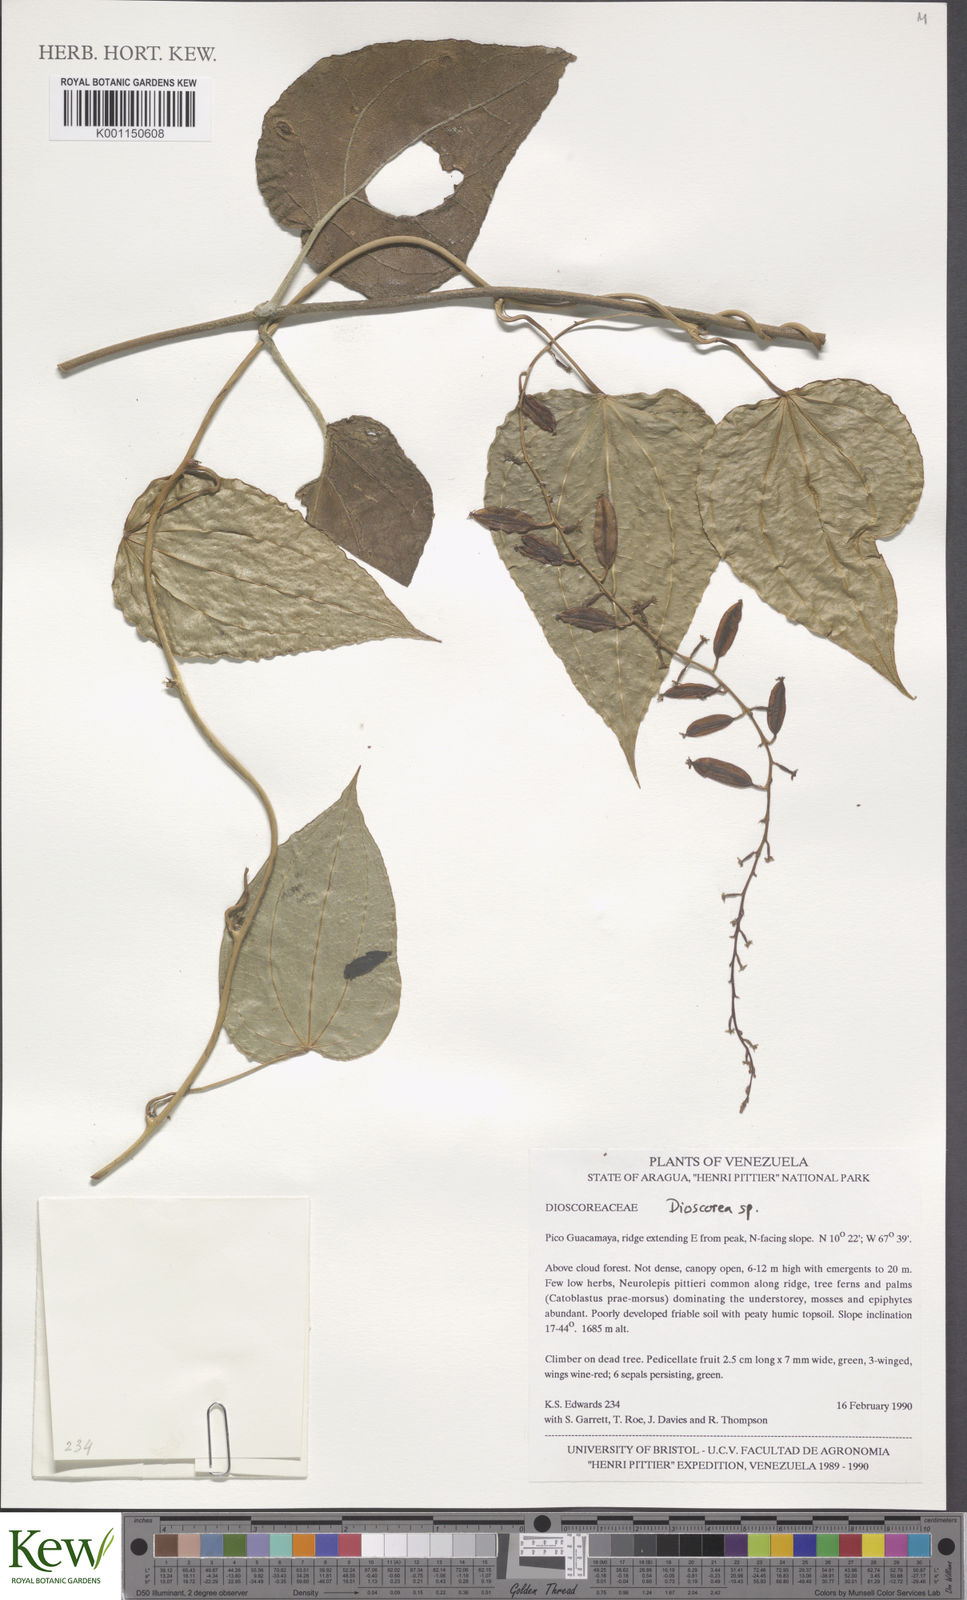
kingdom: Plantae
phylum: Tracheophyta
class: Liliopsida
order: Dioscoreales
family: Dioscoreaceae
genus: Dioscorea
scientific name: Dioscorea
